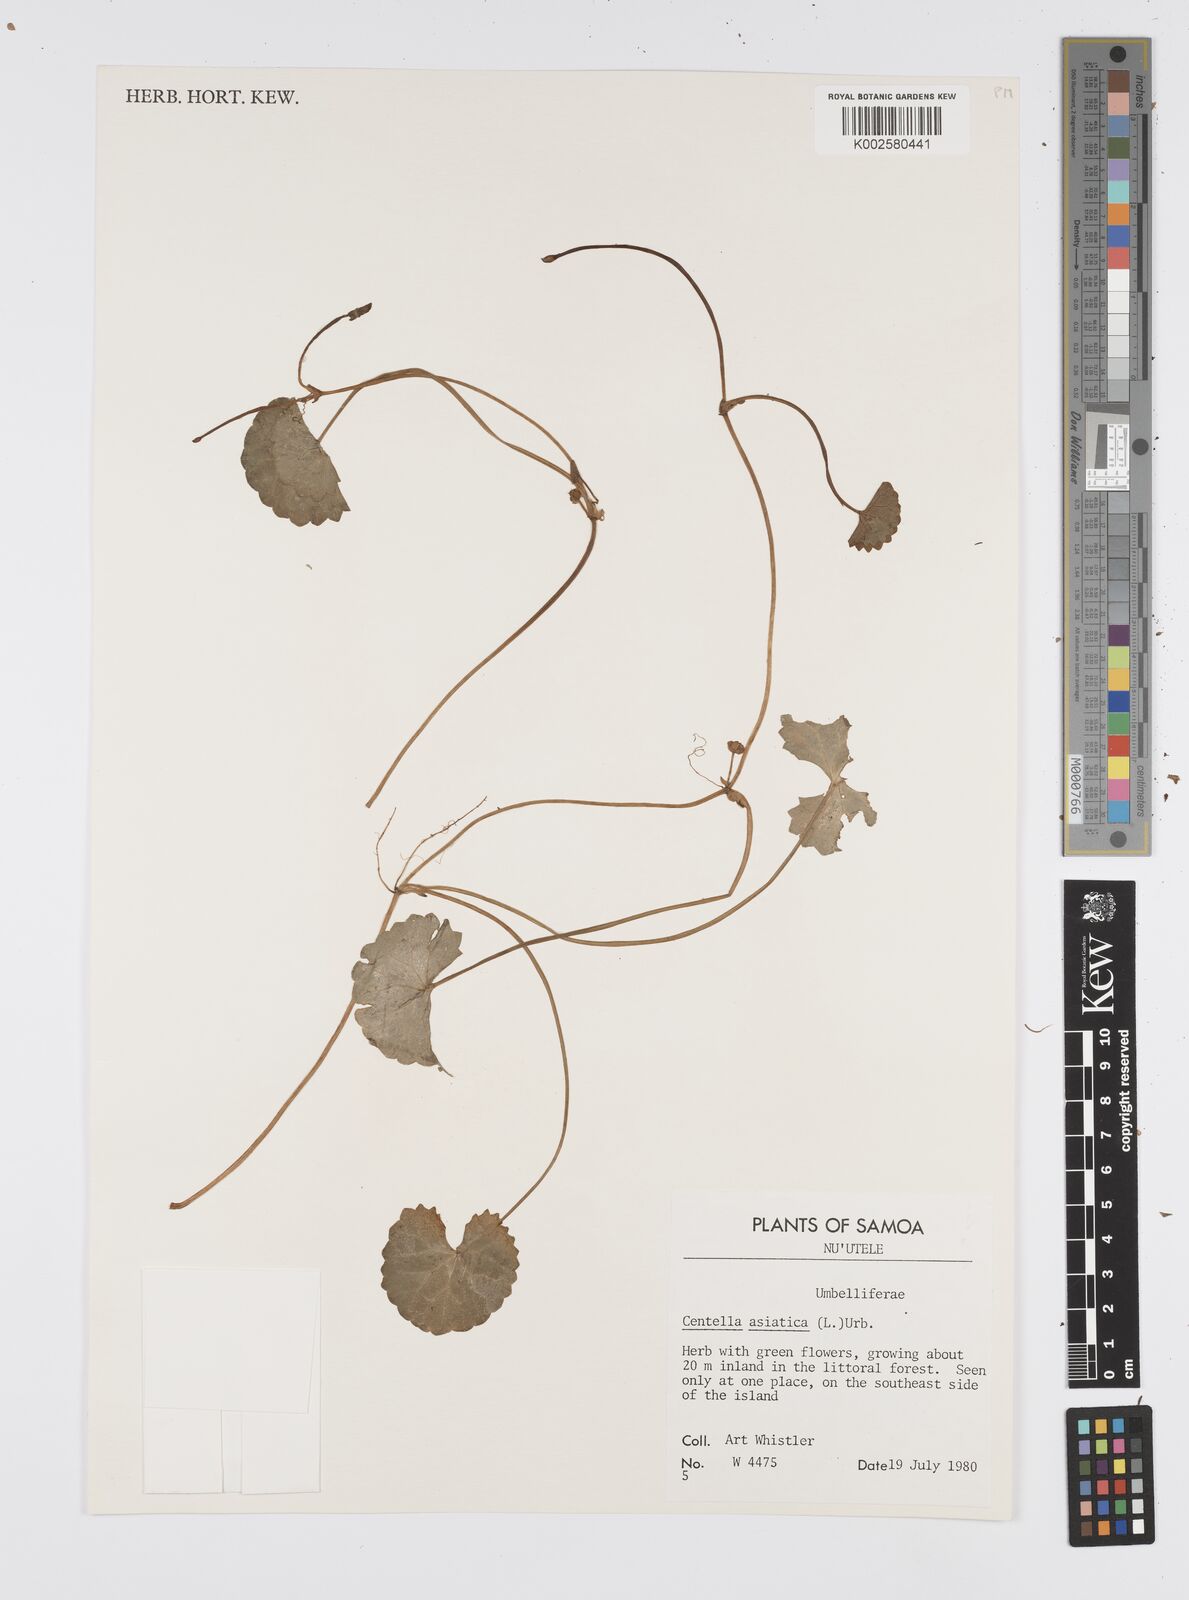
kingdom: Plantae
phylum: Tracheophyta
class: Magnoliopsida
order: Apiales
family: Apiaceae
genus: Centella
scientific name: Centella asiatica
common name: Spadeleaf
